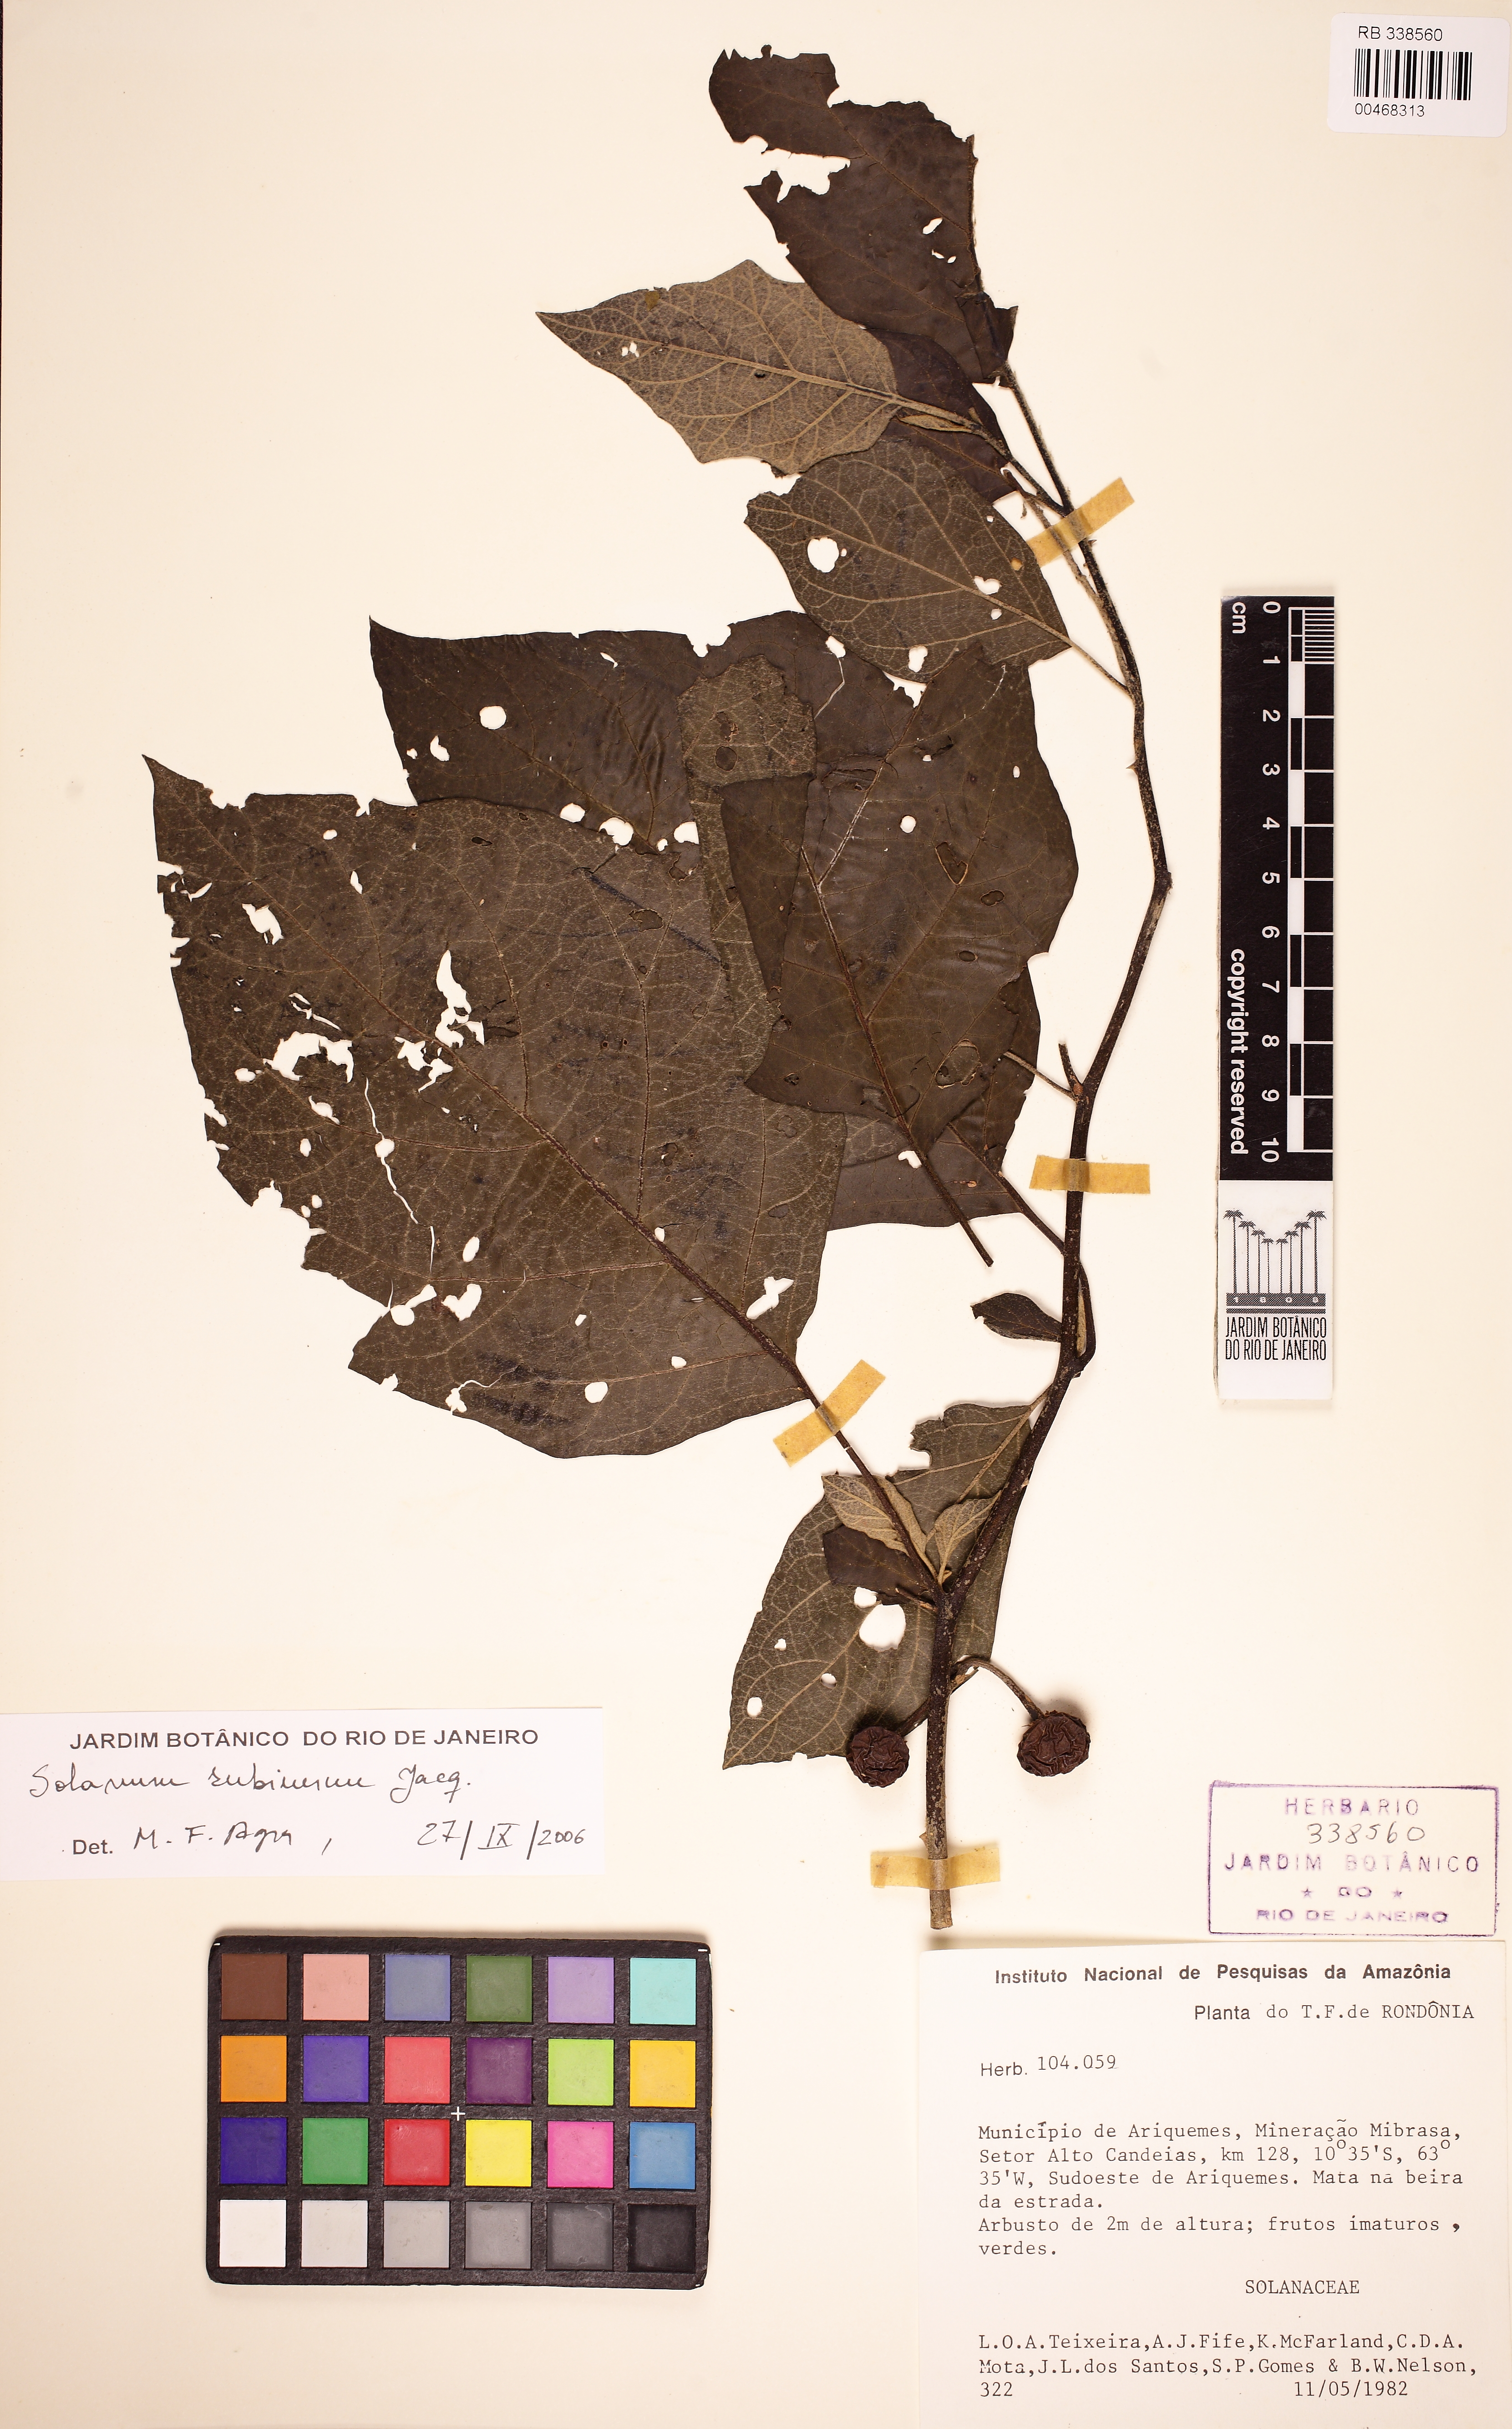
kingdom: Plantae
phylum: Tracheophyta
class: Magnoliopsida
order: Solanales
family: Solanaceae
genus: Solanum
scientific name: Solanum subinerme
